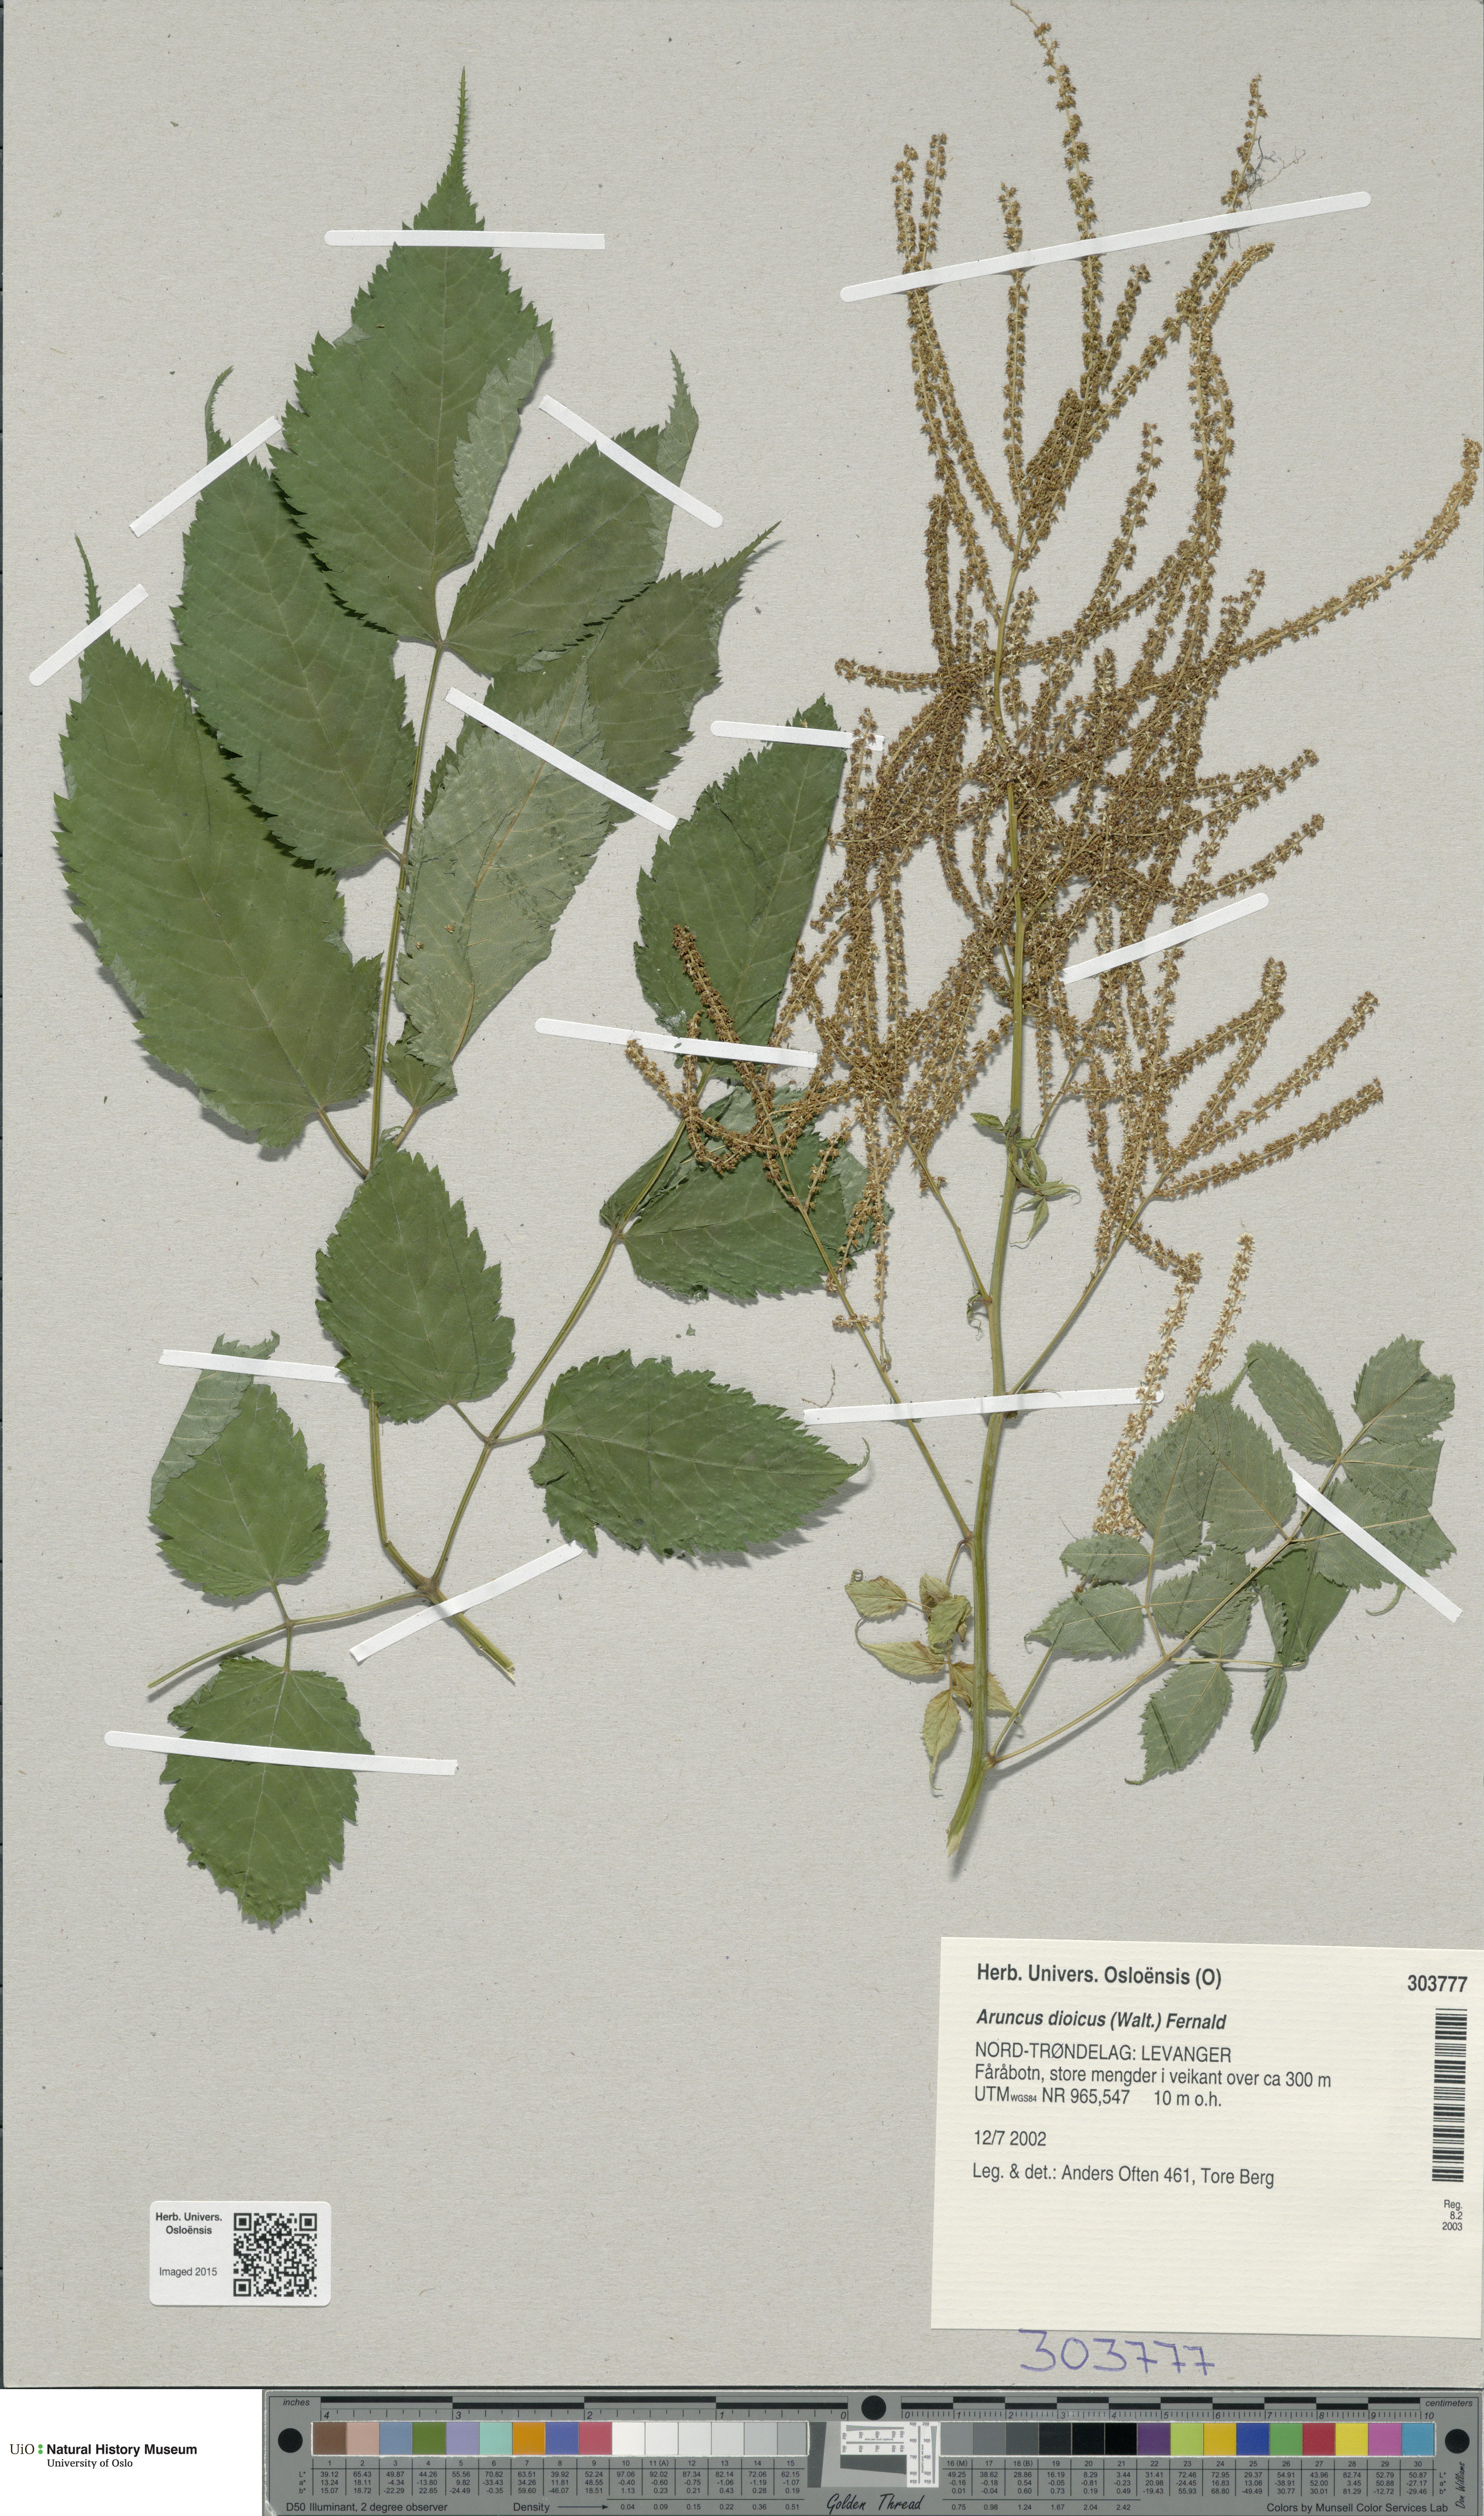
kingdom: Plantae
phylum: Tracheophyta
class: Magnoliopsida
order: Rosales
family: Rosaceae
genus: Aruncus
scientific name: Aruncus dioicus
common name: Buck's-beard
